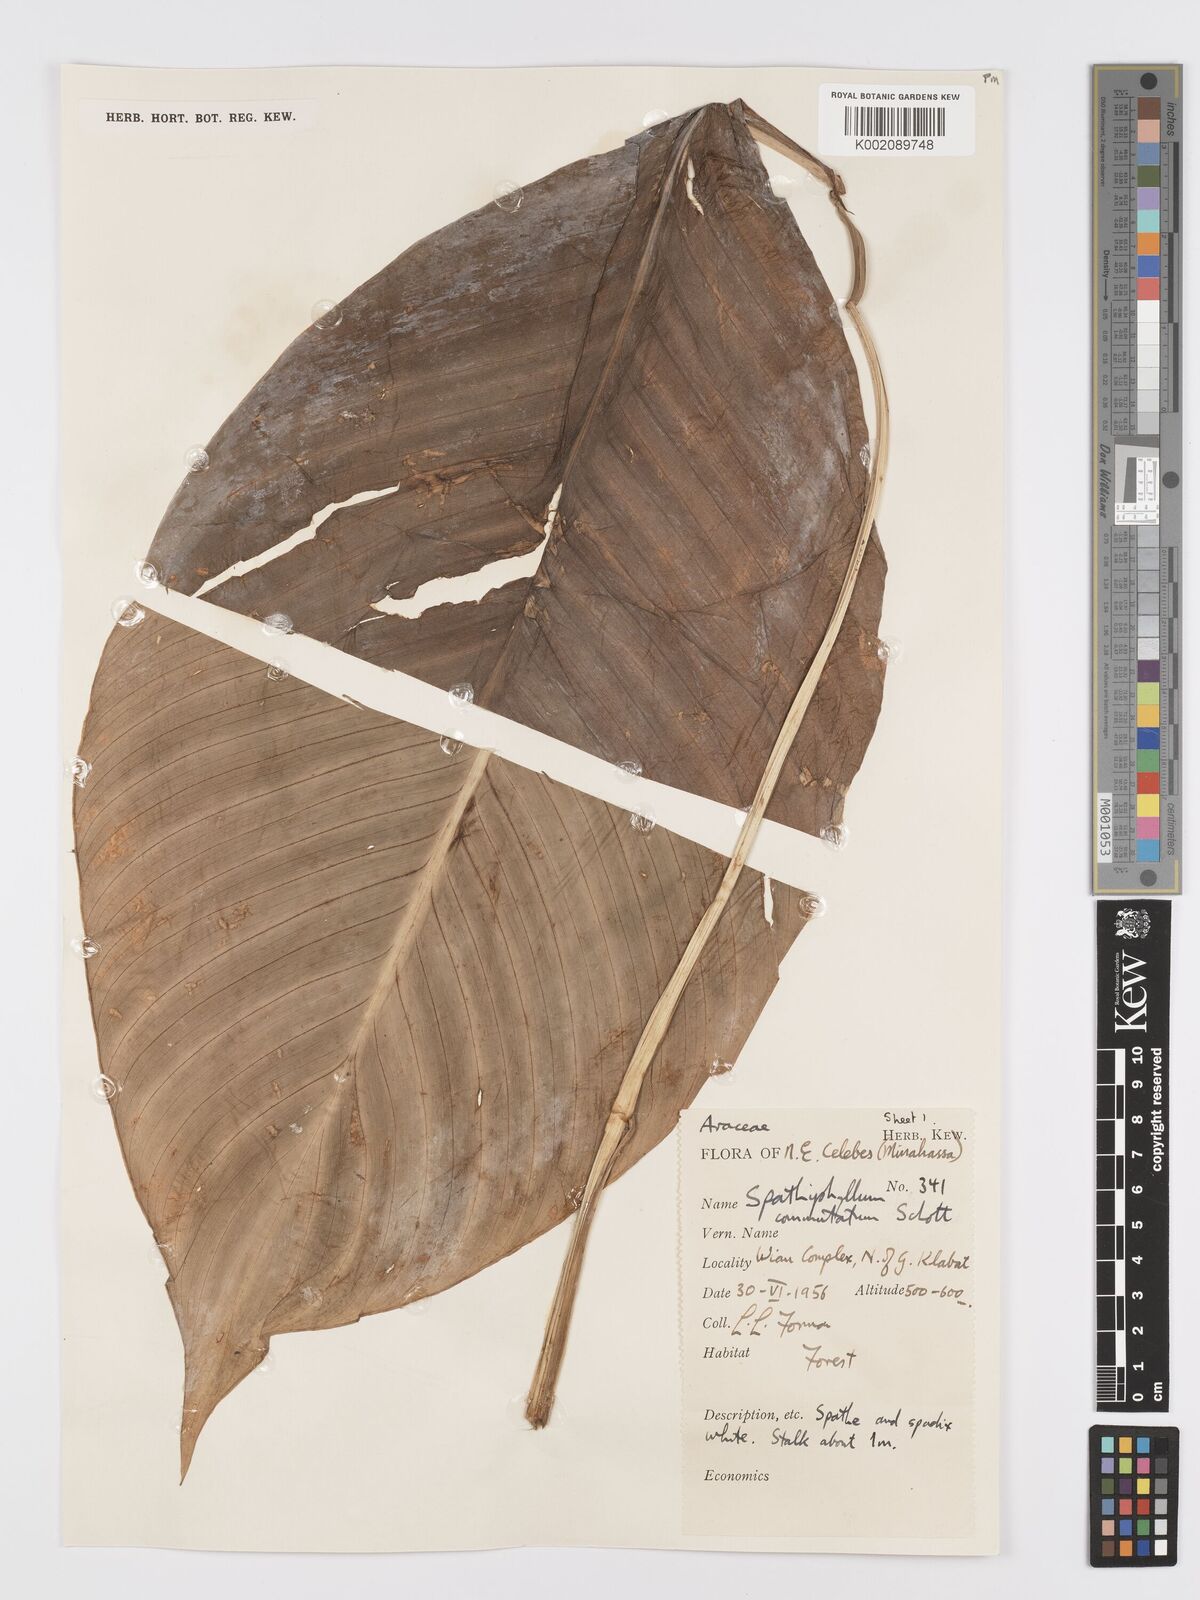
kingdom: Plantae
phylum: Tracheophyta
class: Liliopsida
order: Alismatales
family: Araceae
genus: Spathiphyllum
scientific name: Spathiphyllum commutatum
